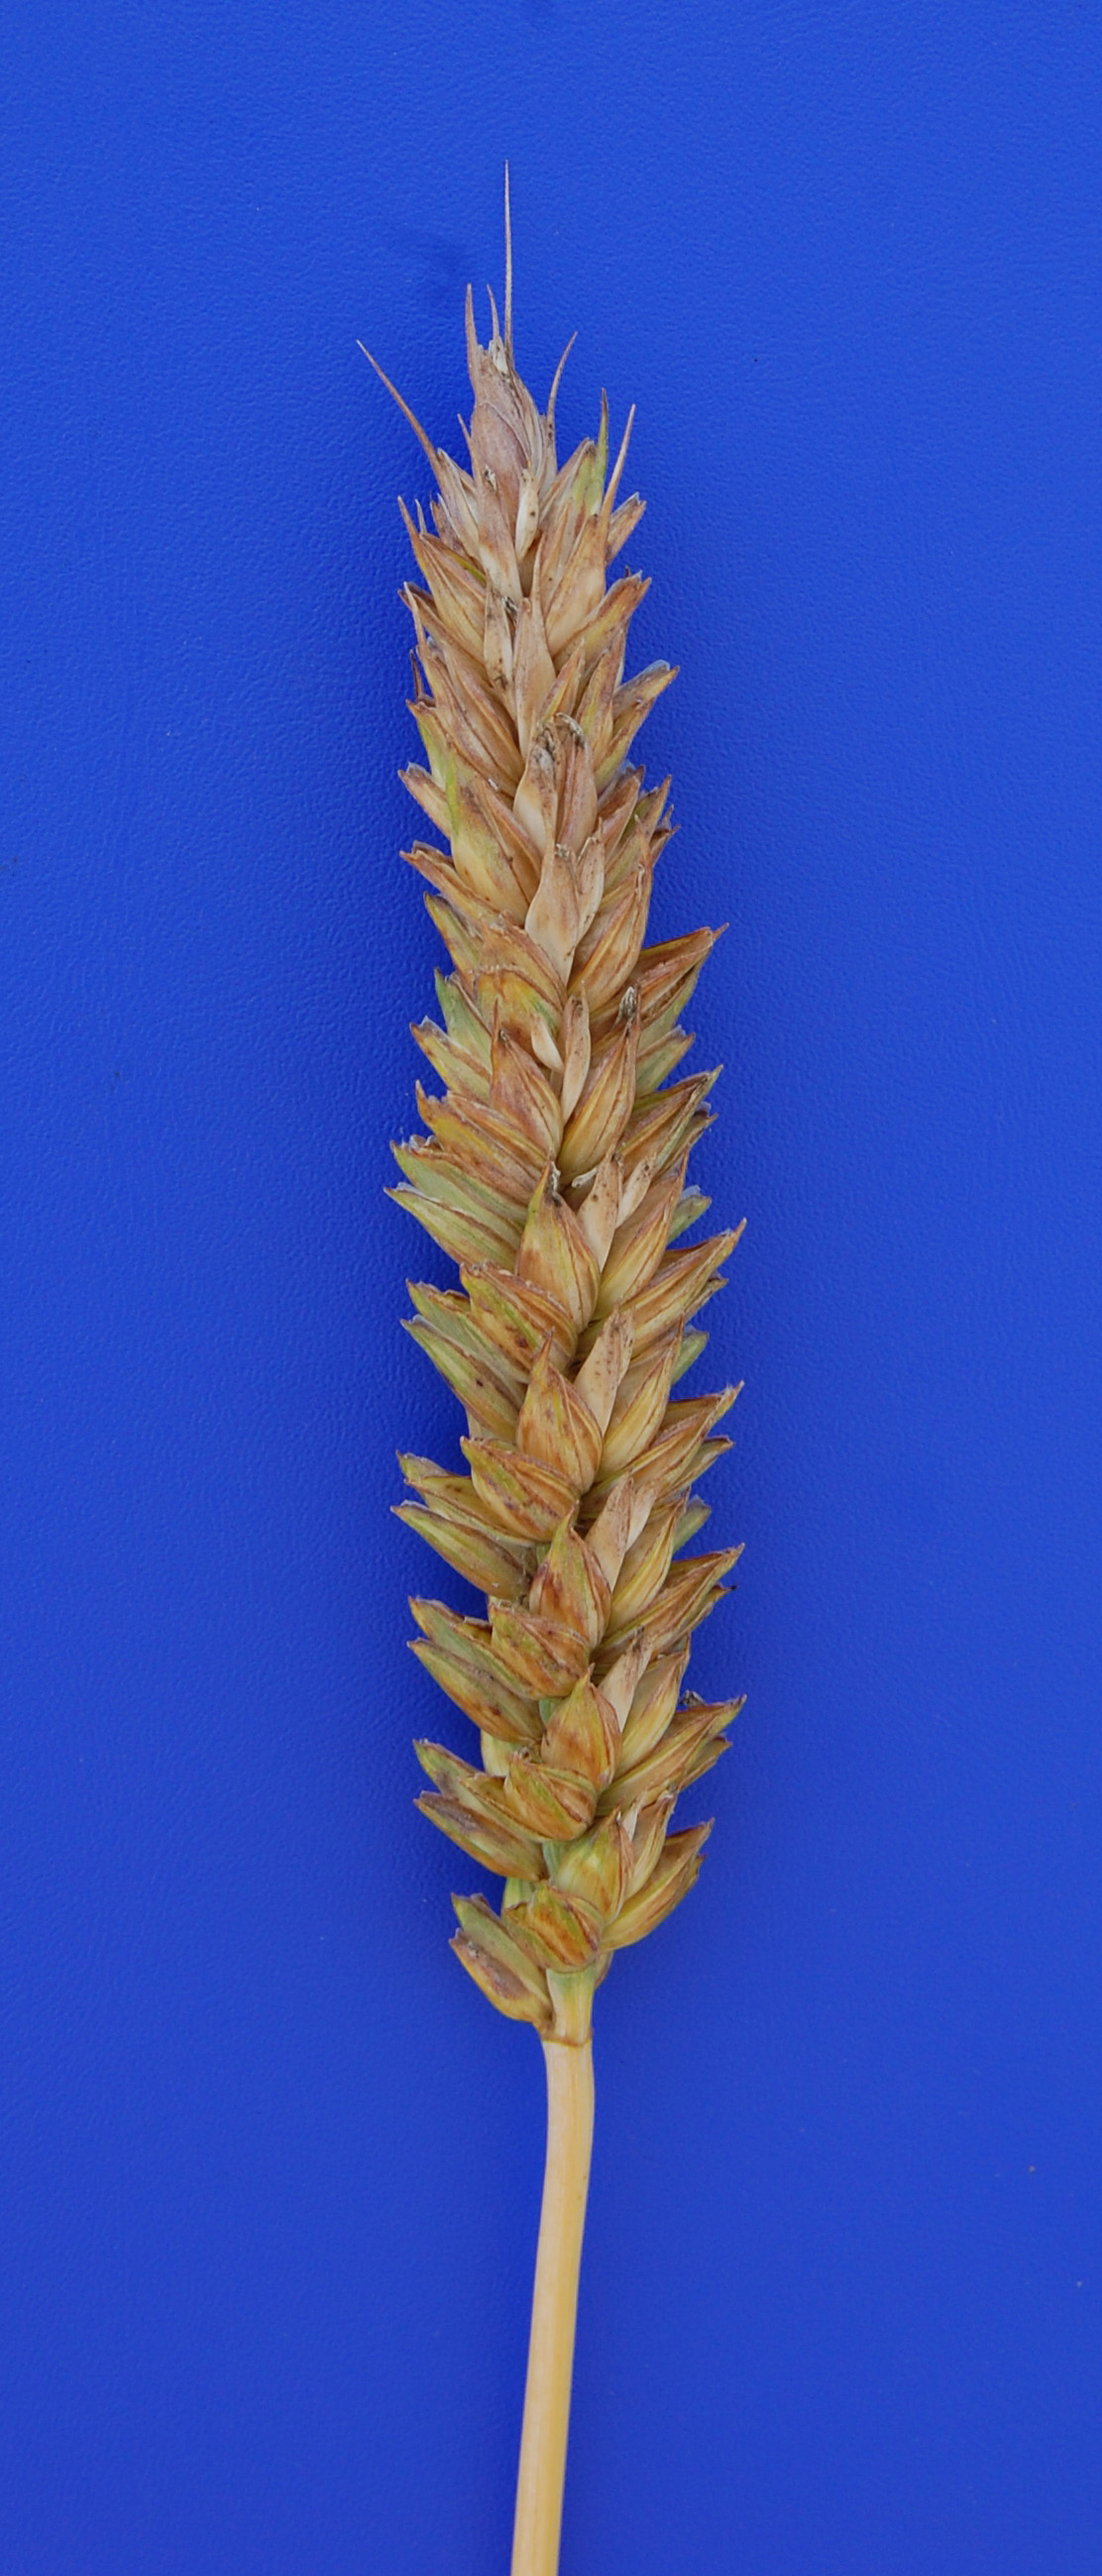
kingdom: Plantae
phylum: Tracheophyta
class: Liliopsida
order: Poales
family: Poaceae
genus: Triticum
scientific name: Triticum aestivum
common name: Common wheat
